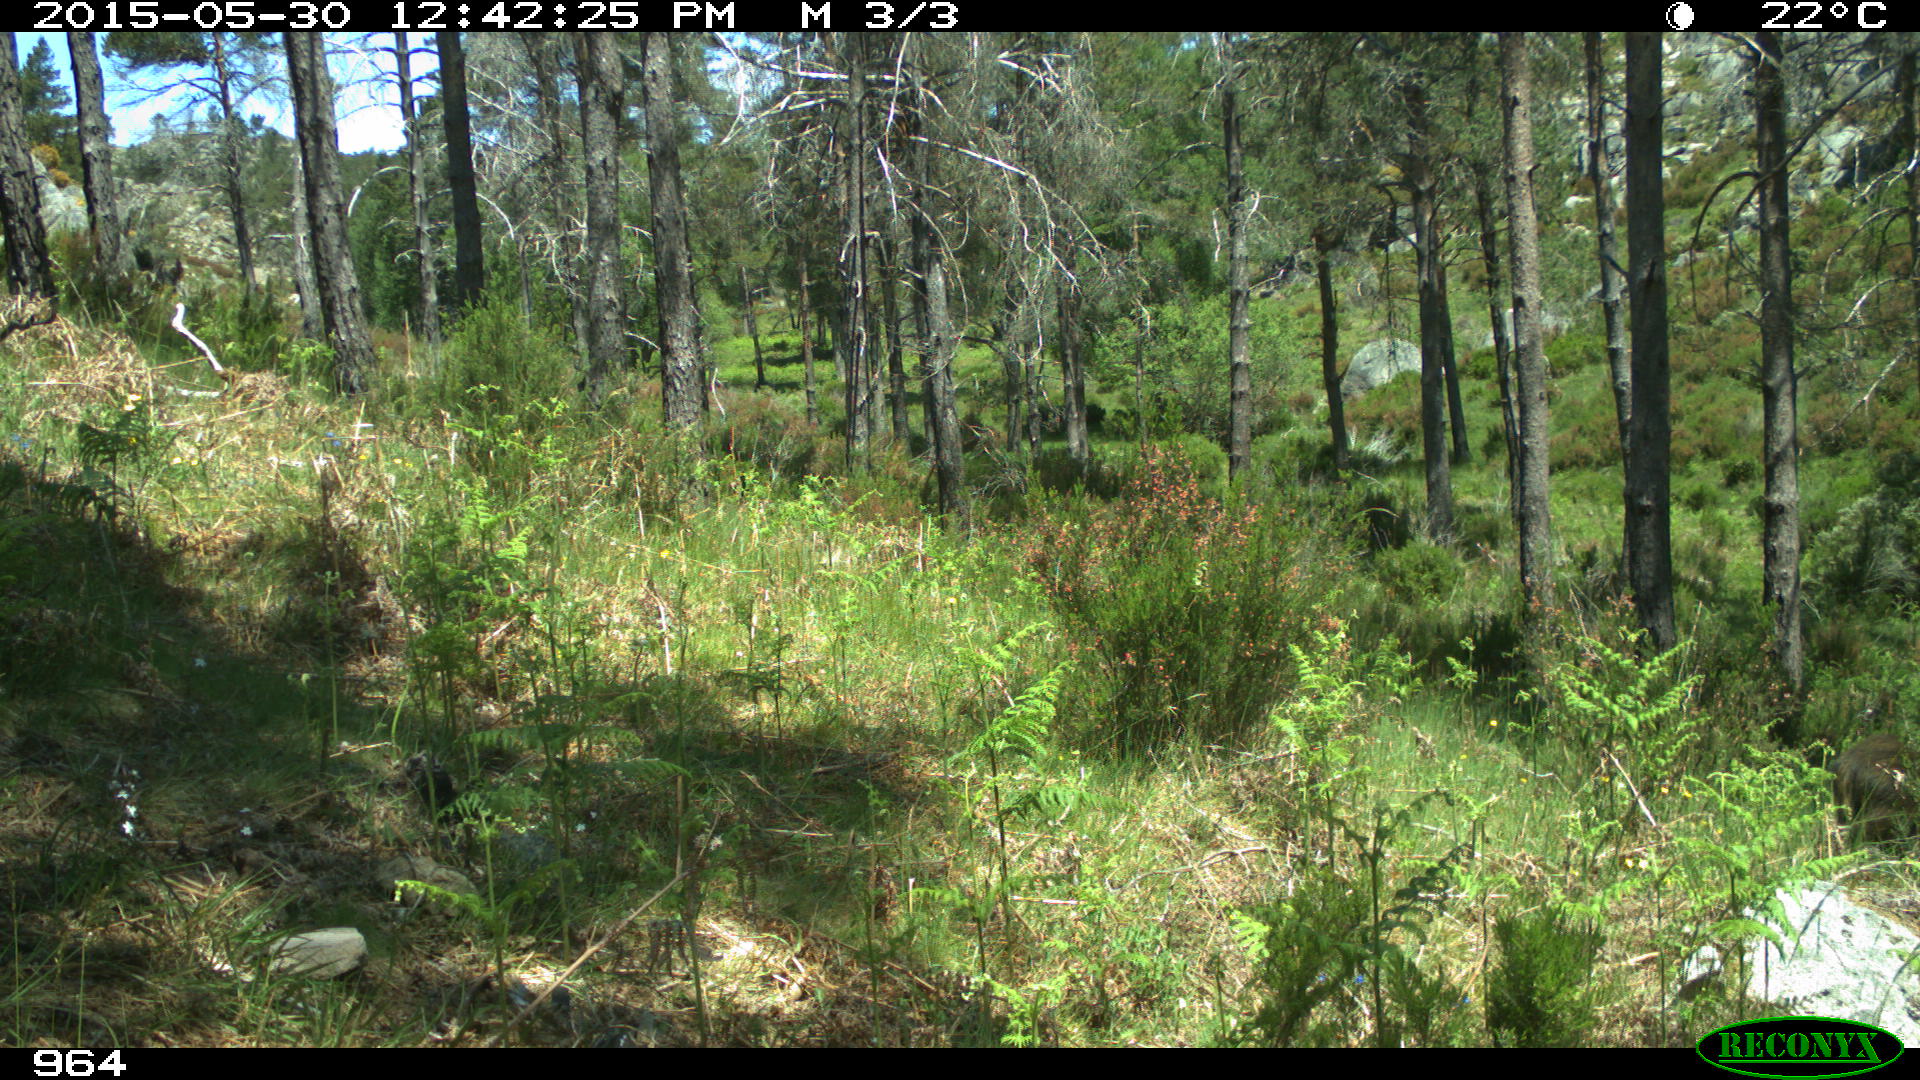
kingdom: Animalia
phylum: Chordata
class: Mammalia
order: Artiodactyla
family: Suidae
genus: Sus
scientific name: Sus scrofa
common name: Wild boar
